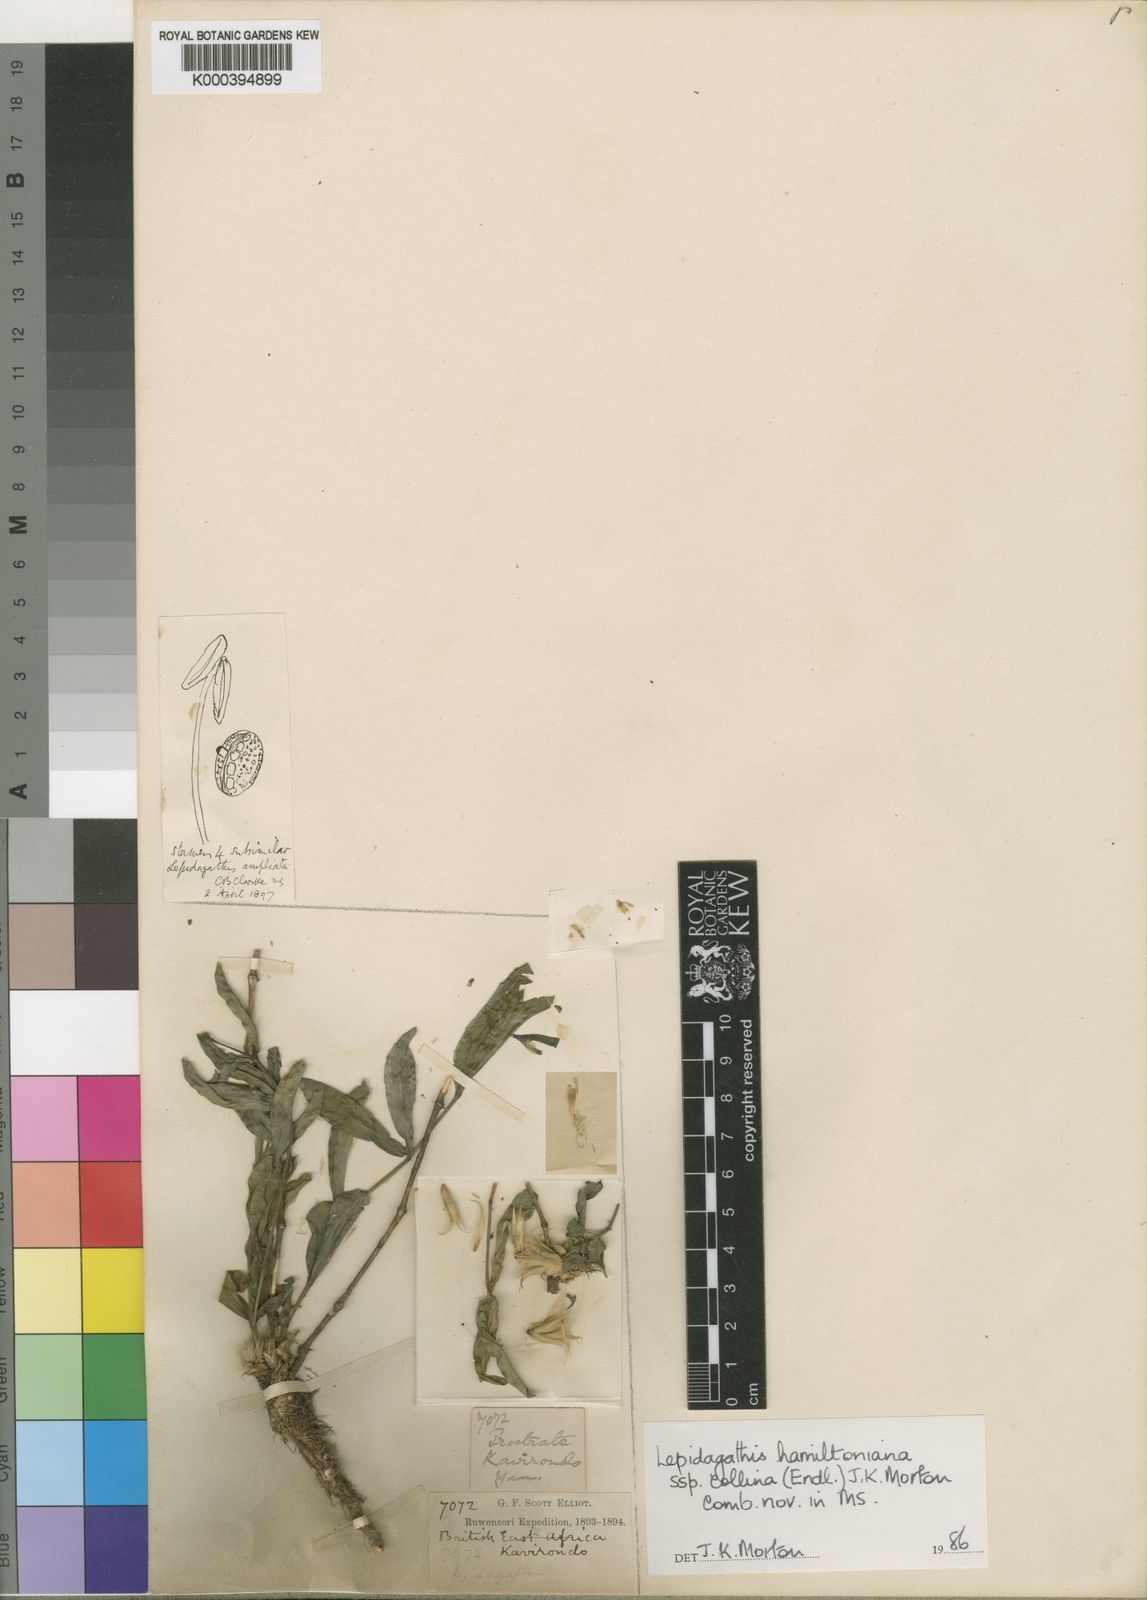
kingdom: Plantae
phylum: Tracheophyta
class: Magnoliopsida
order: Lamiales
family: Acanthaceae
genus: Lepidagathis
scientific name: Lepidagathis collina
